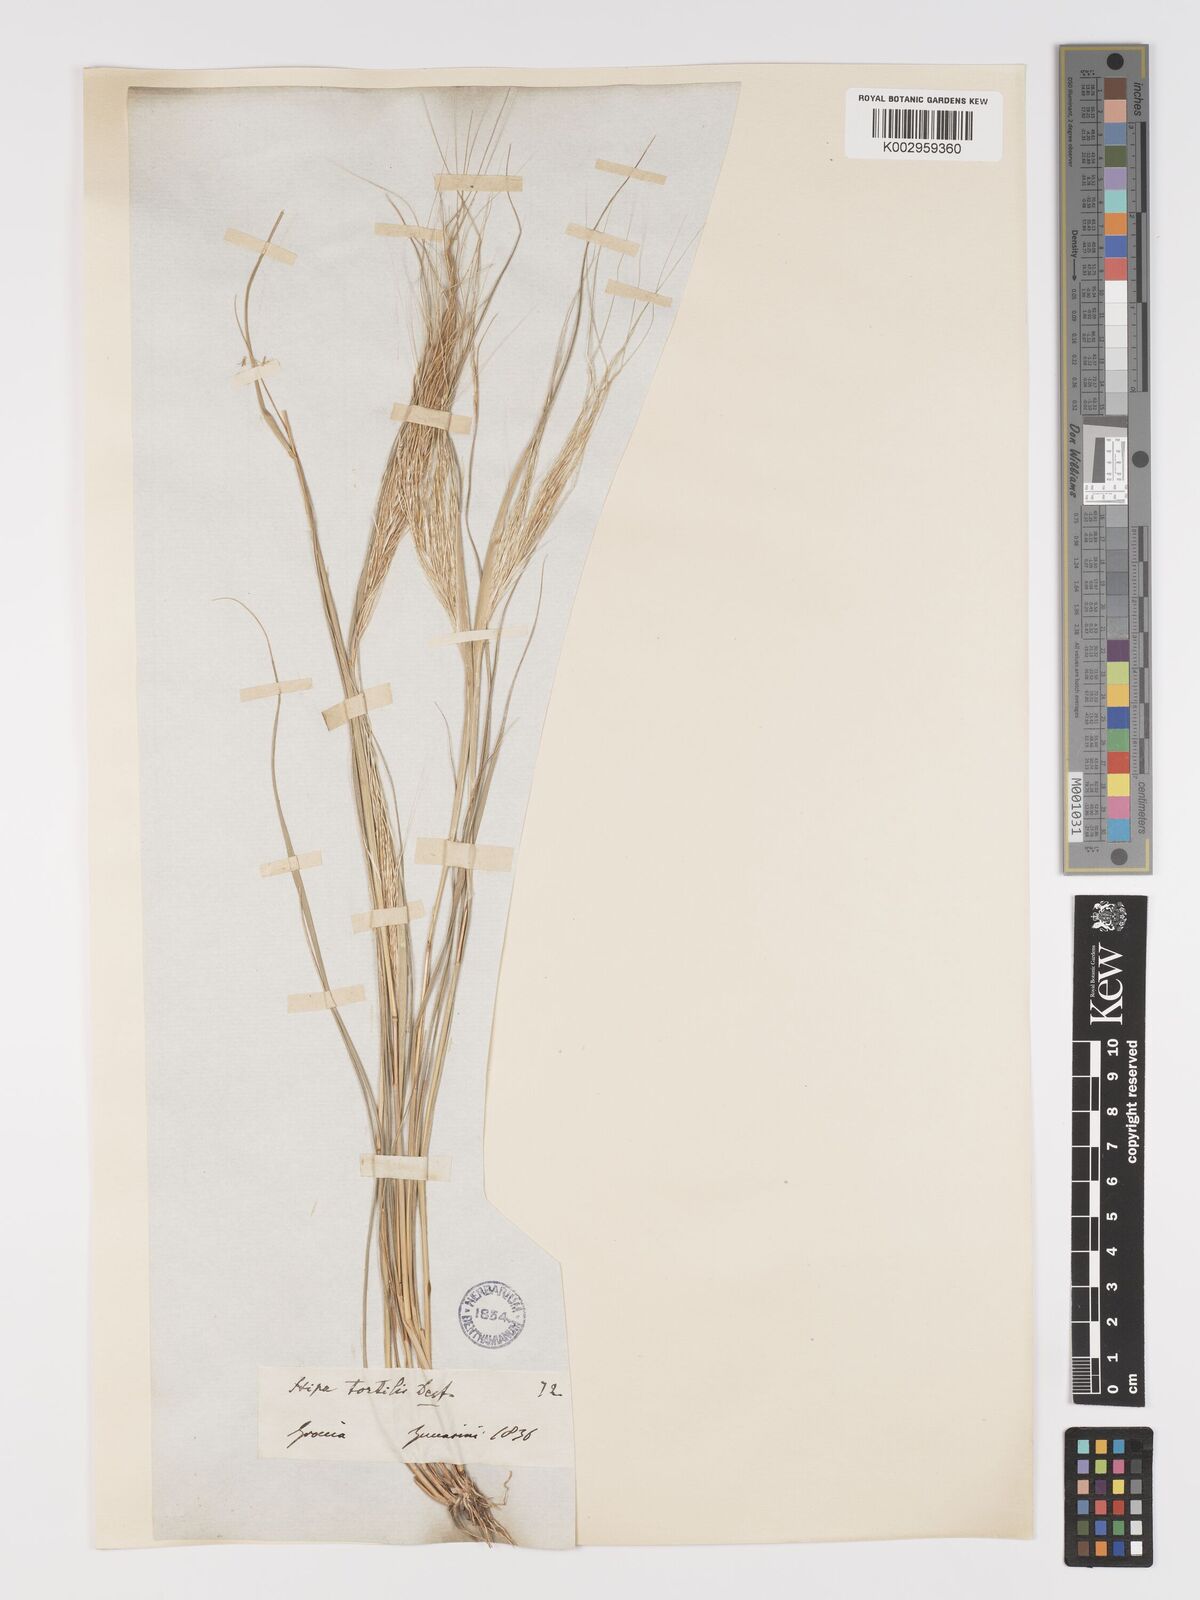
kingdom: Plantae
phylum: Tracheophyta
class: Liliopsida
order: Poales
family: Poaceae
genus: Stipellula
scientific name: Stipellula capensis
